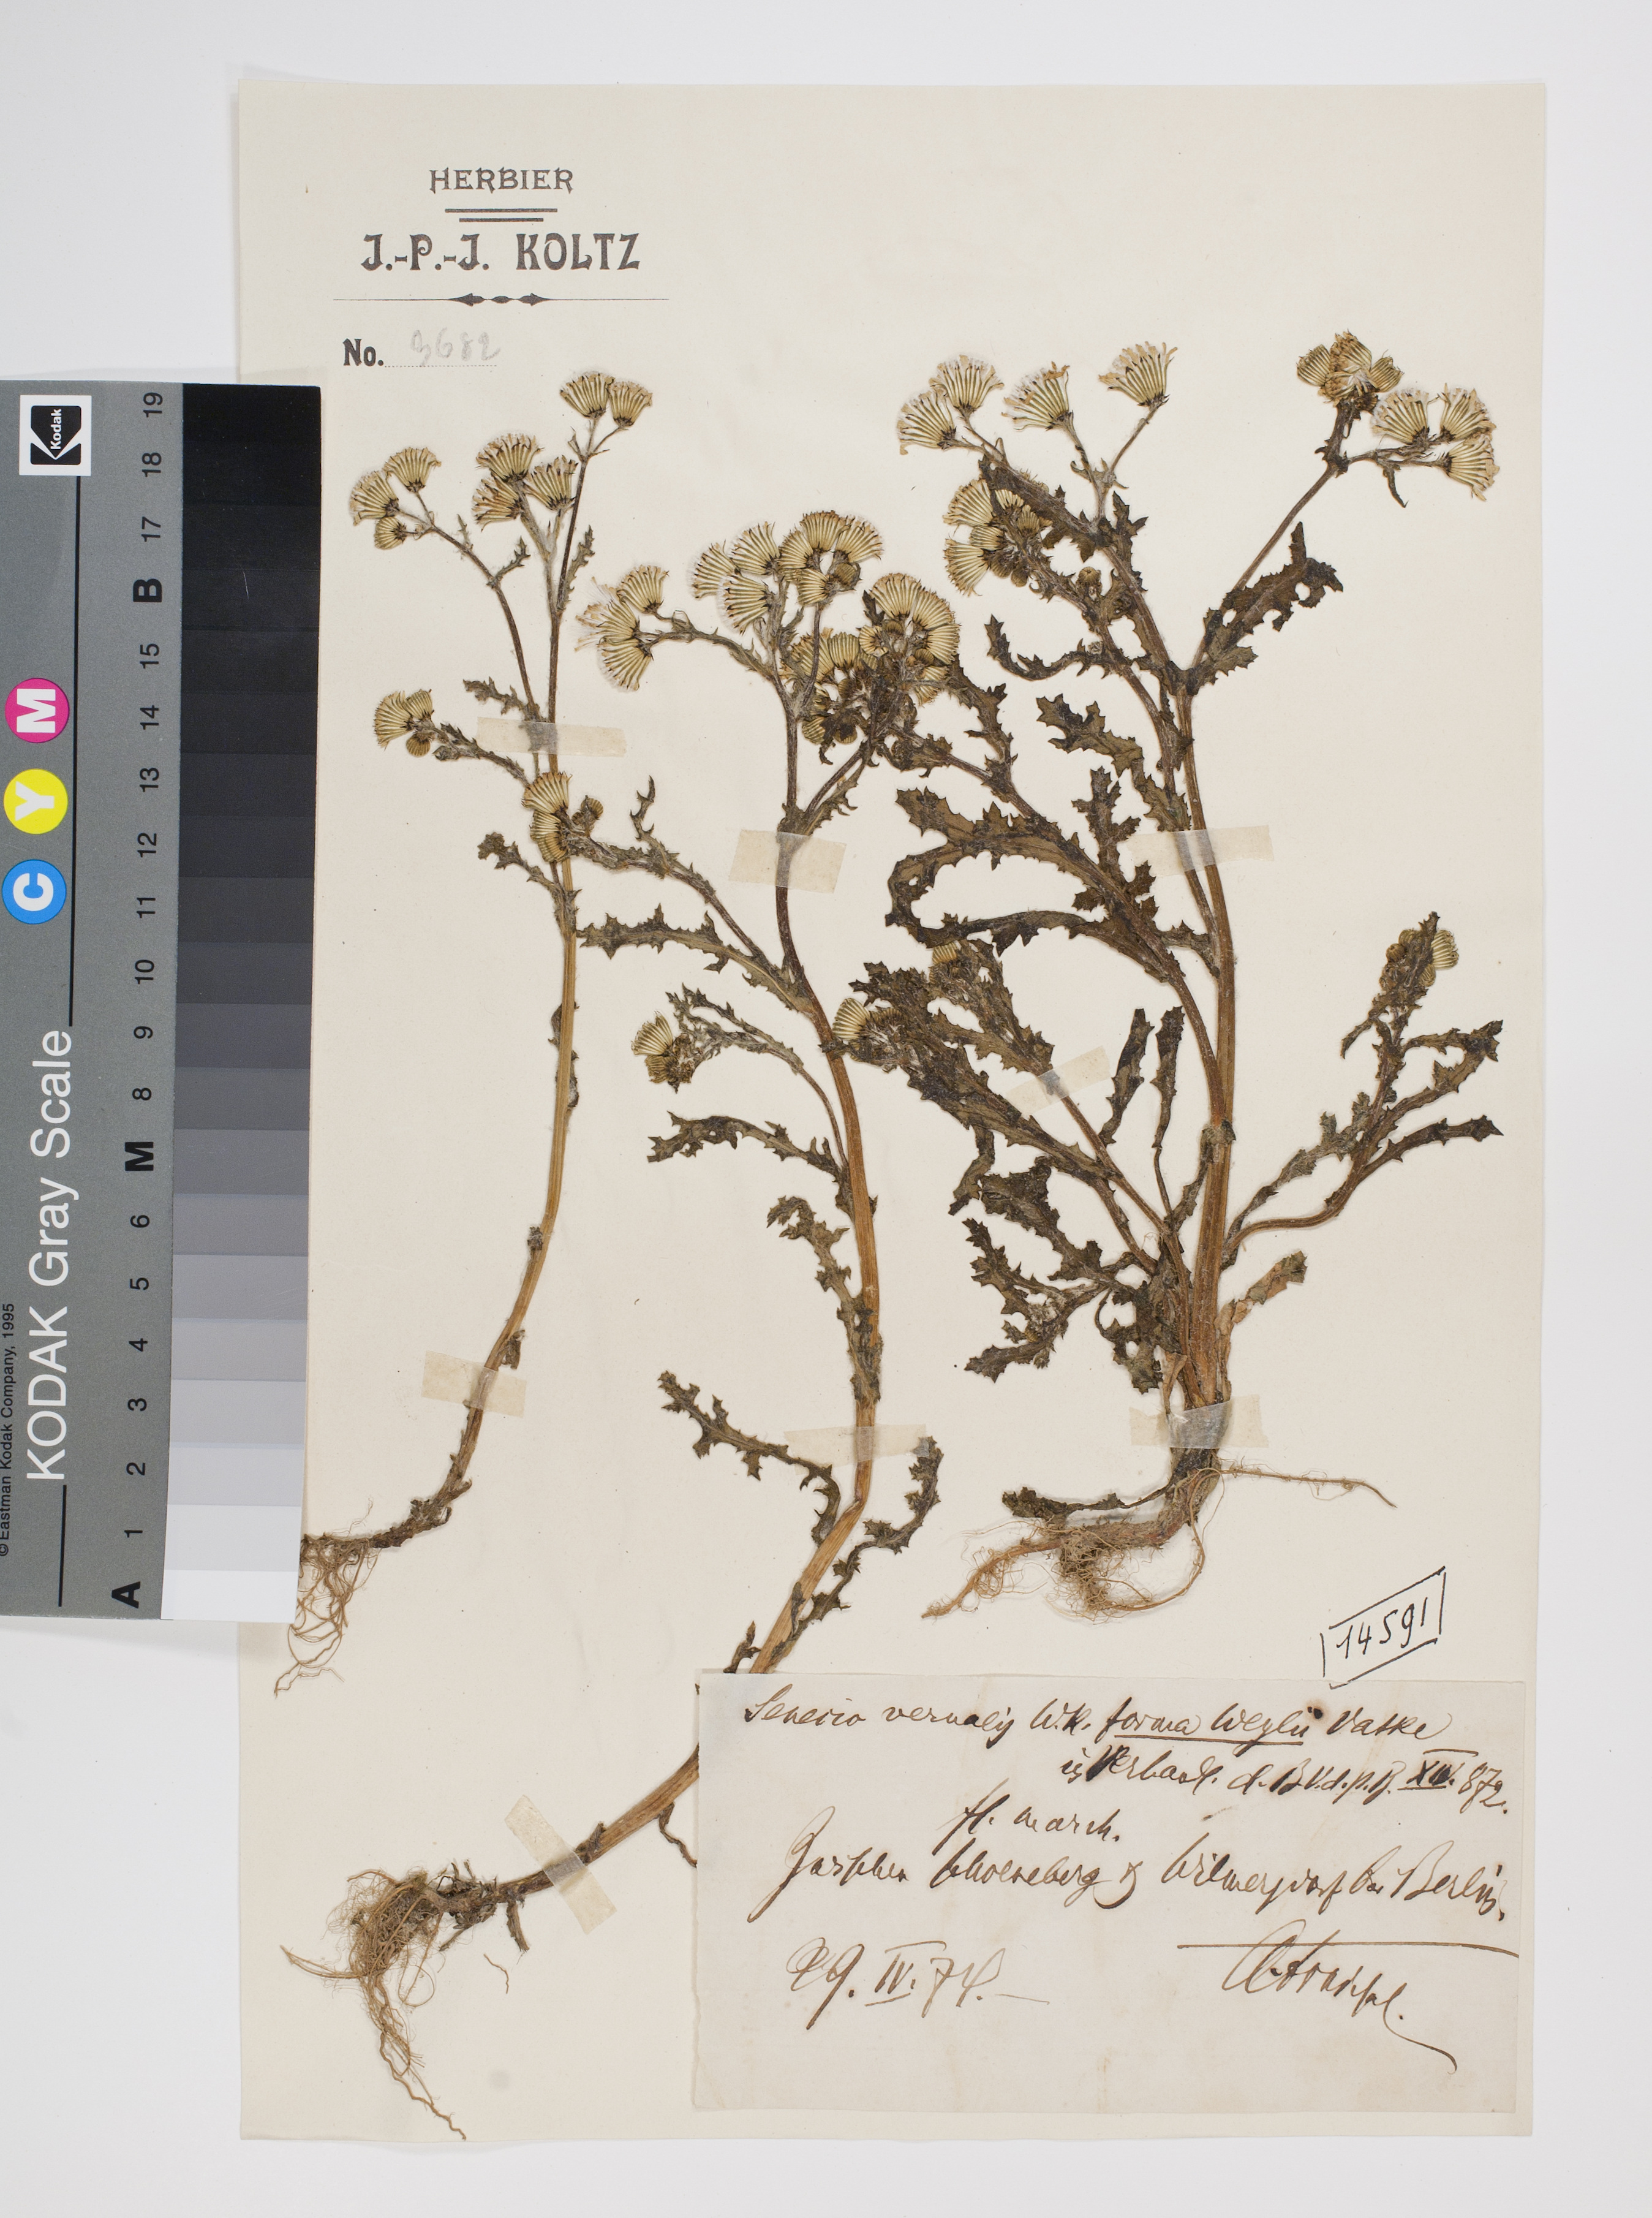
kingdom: Plantae
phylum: Tracheophyta
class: Magnoliopsida
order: Asterales
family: Asteraceae
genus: Senecio
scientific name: Senecio vernalis
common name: Eastern groundsel
